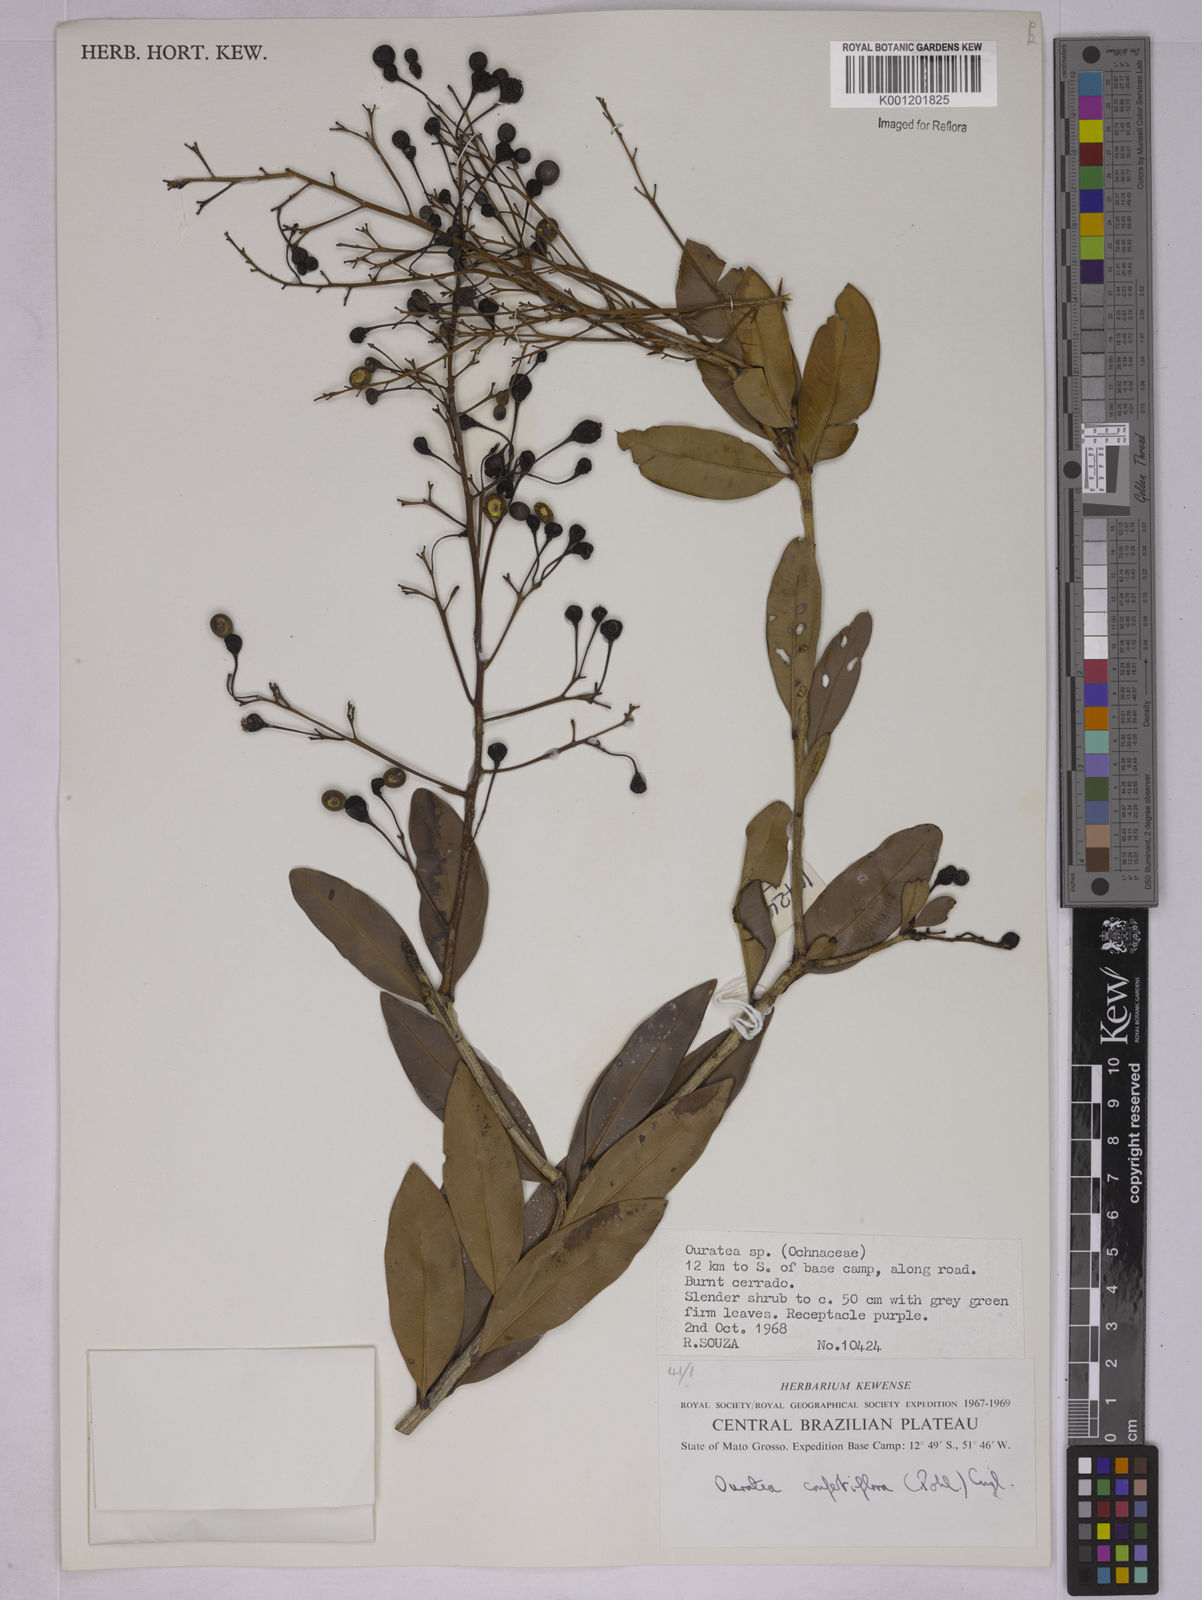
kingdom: Plantae
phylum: Tracheophyta
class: Magnoliopsida
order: Malpighiales
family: Ochnaceae
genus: Ouratea
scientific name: Ouratea confertiflora
